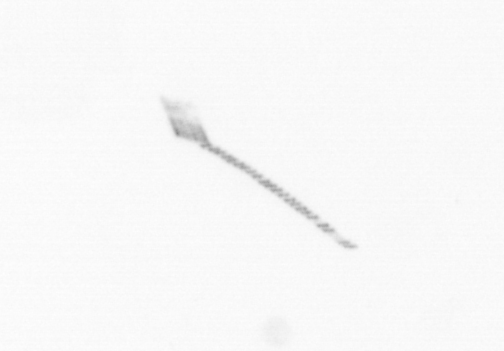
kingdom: Chromista
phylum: Ochrophyta
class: Bacillariophyceae
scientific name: Bacillariophyceae
